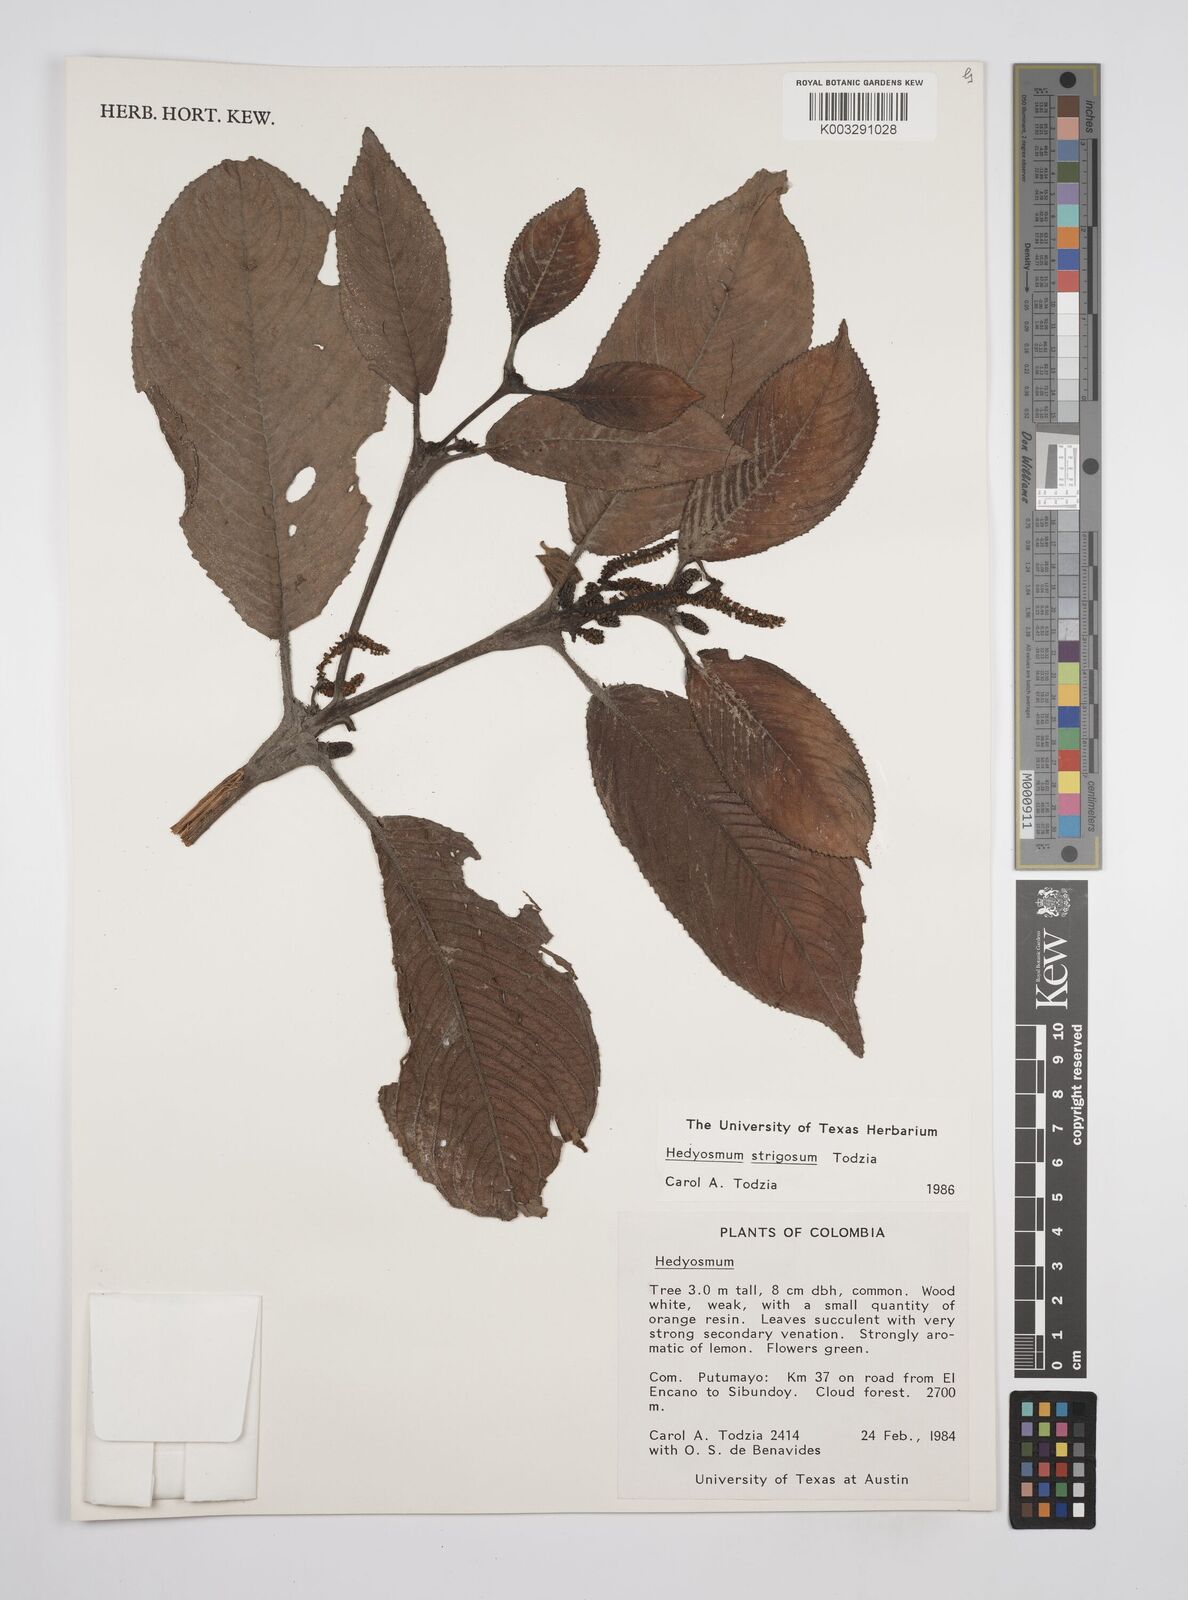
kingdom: Plantae
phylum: Tracheophyta
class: Magnoliopsida
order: Chloranthales
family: Chloranthaceae
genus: Hedyosmum
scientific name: Hedyosmum strigosum
